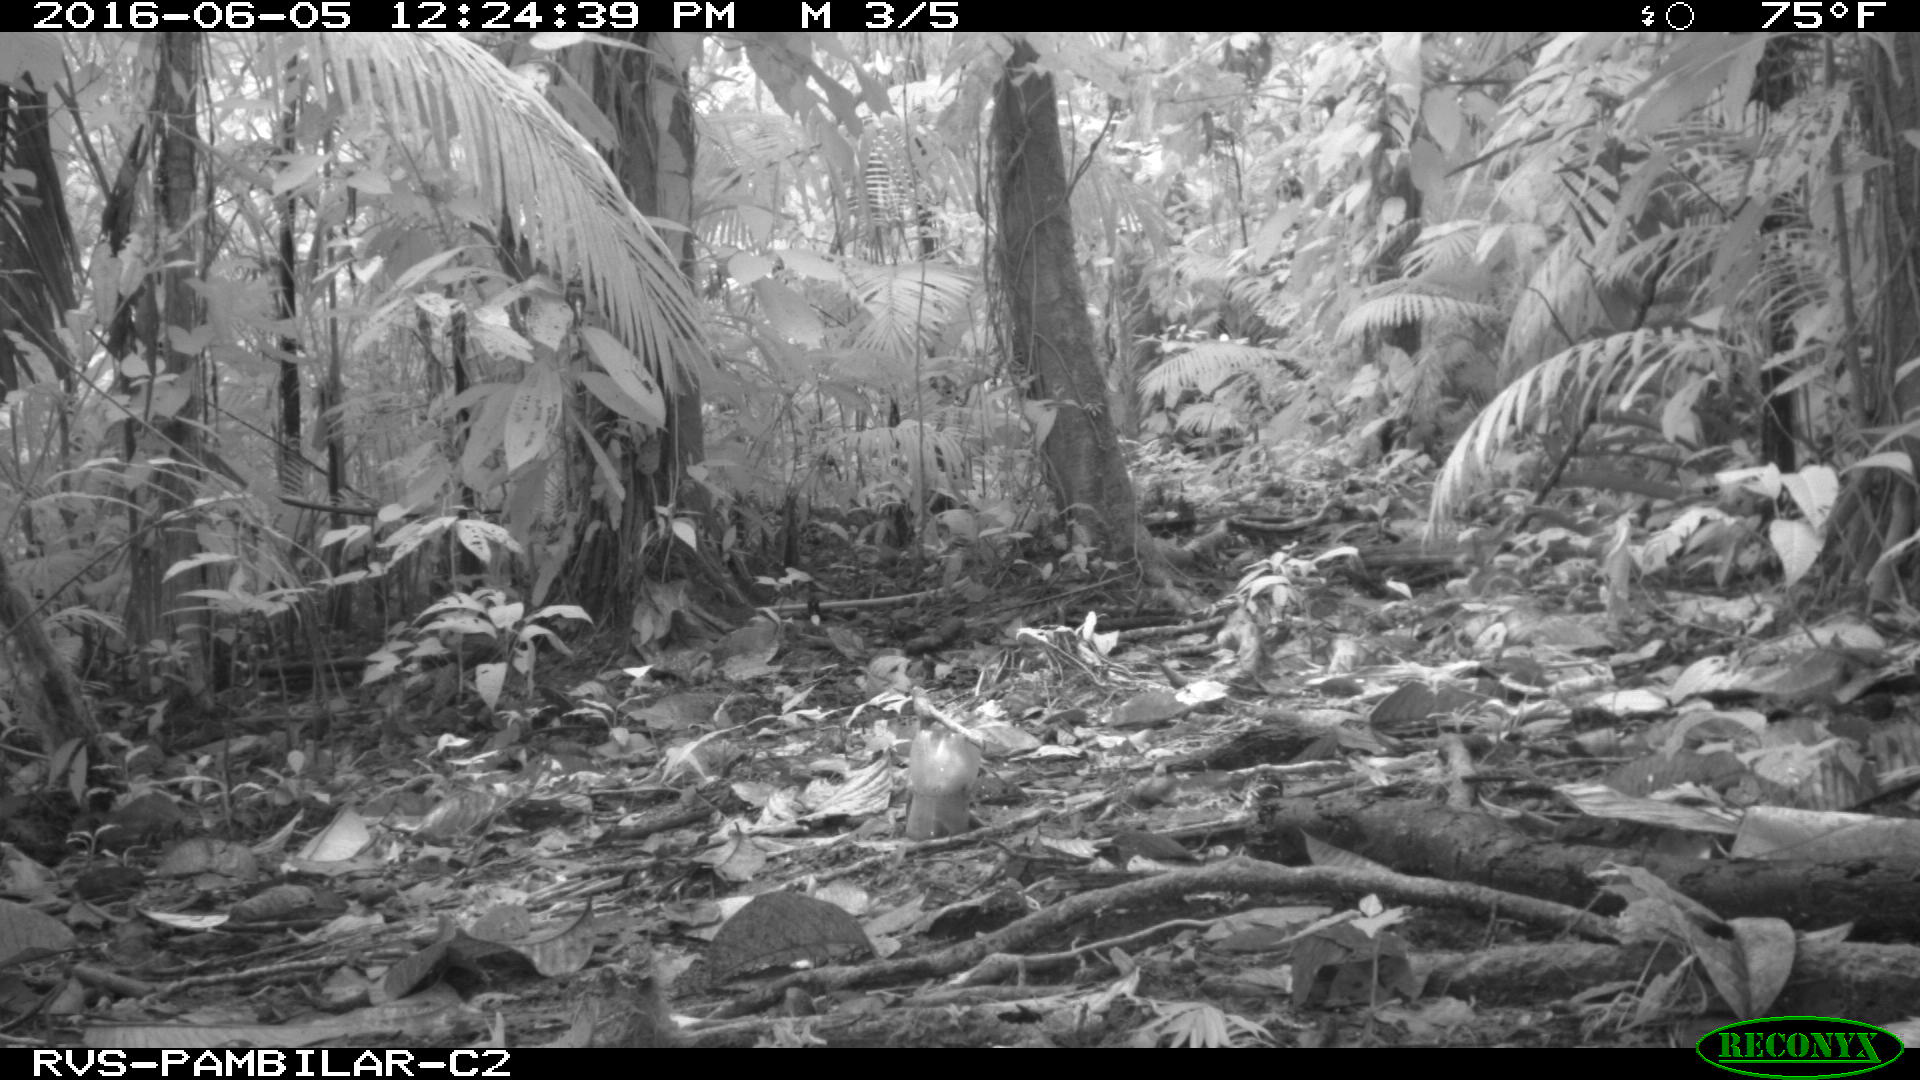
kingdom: Animalia
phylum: Chordata
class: Mammalia
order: Rodentia
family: Dasyproctidae
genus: Dasyprocta
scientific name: Dasyprocta punctata
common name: Central american agouti
